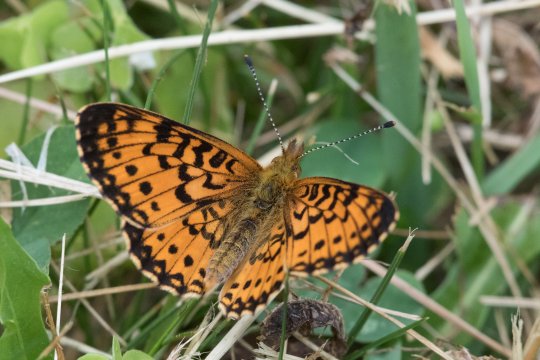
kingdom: Animalia
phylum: Arthropoda
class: Insecta
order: Lepidoptera
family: Nymphalidae
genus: Boloria
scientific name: Boloria selene
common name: Silver-bordered Fritillary
